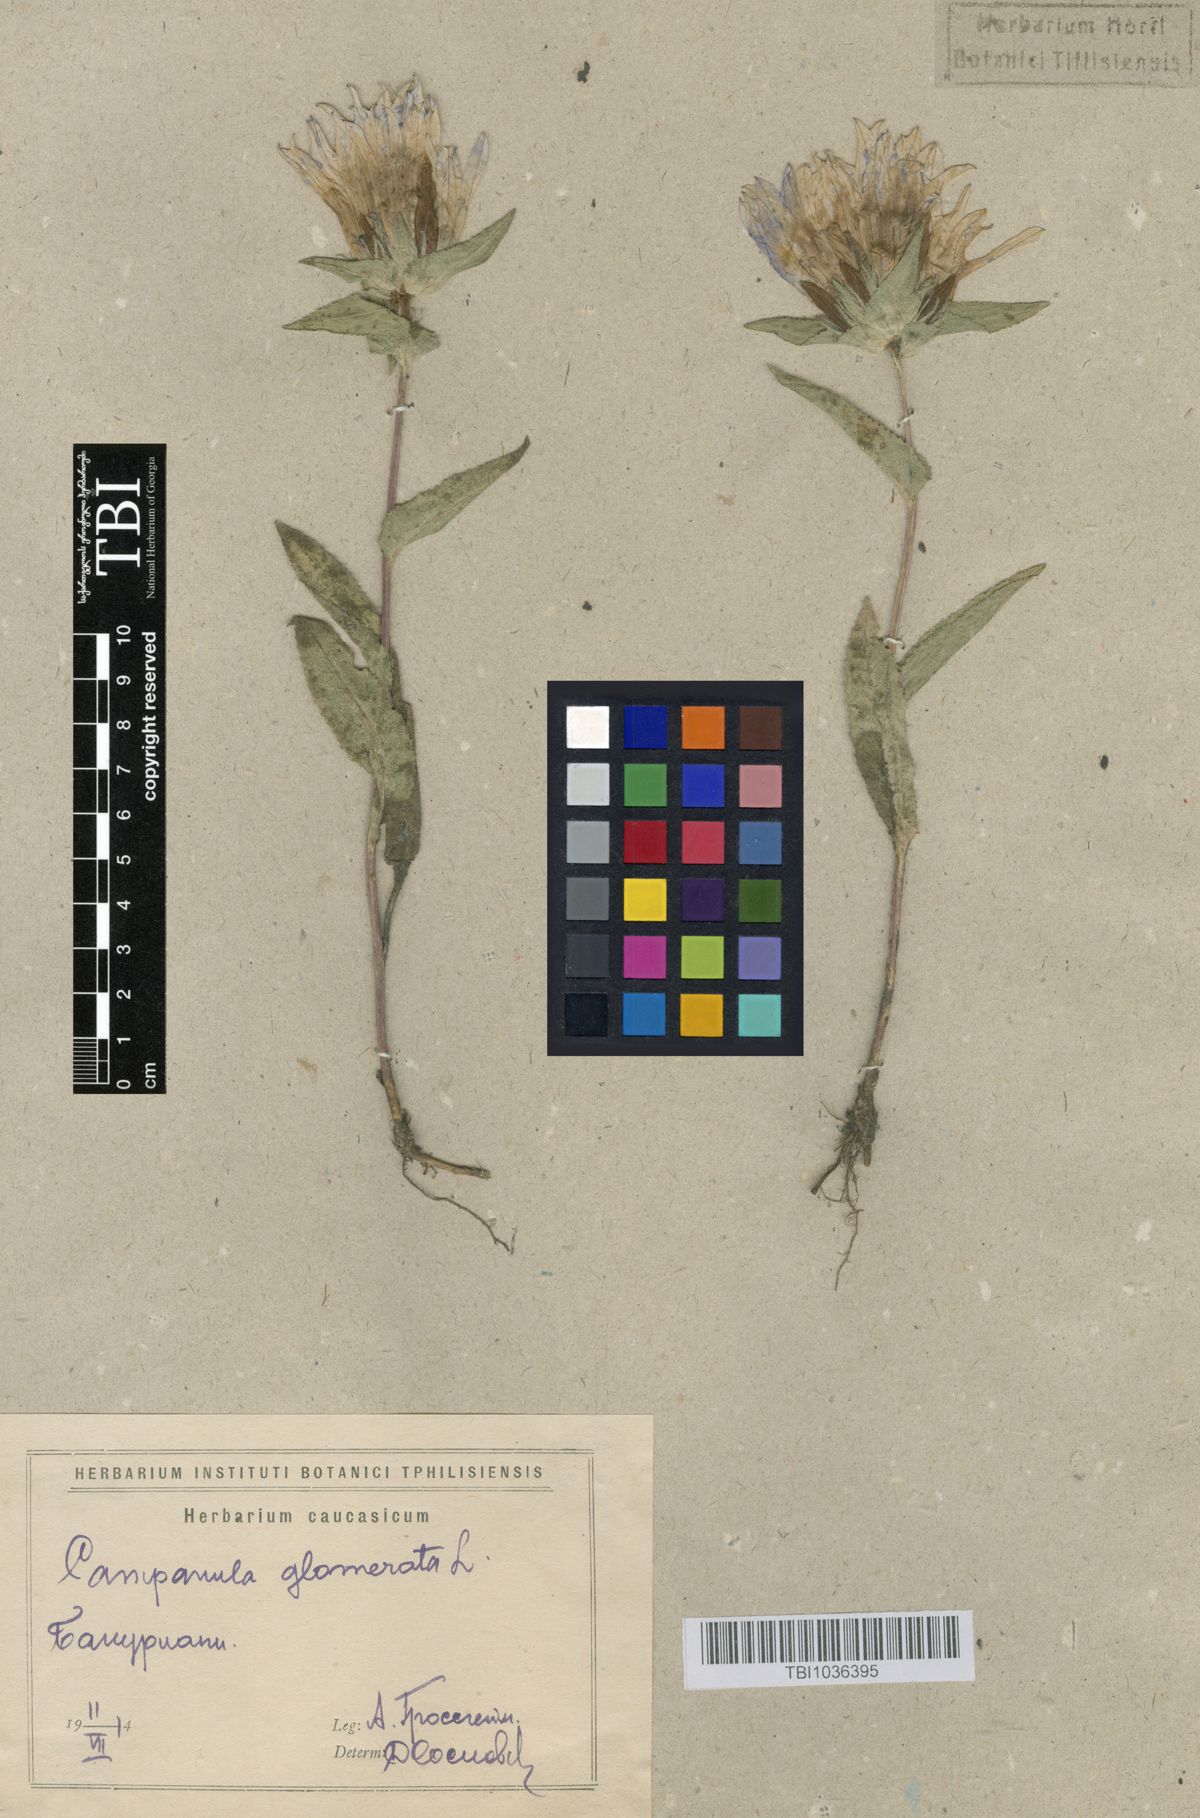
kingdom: Plantae
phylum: Tracheophyta
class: Magnoliopsida
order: Asterales
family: Campanulaceae
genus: Campanula
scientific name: Campanula glomerata
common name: Clustered bellflower
